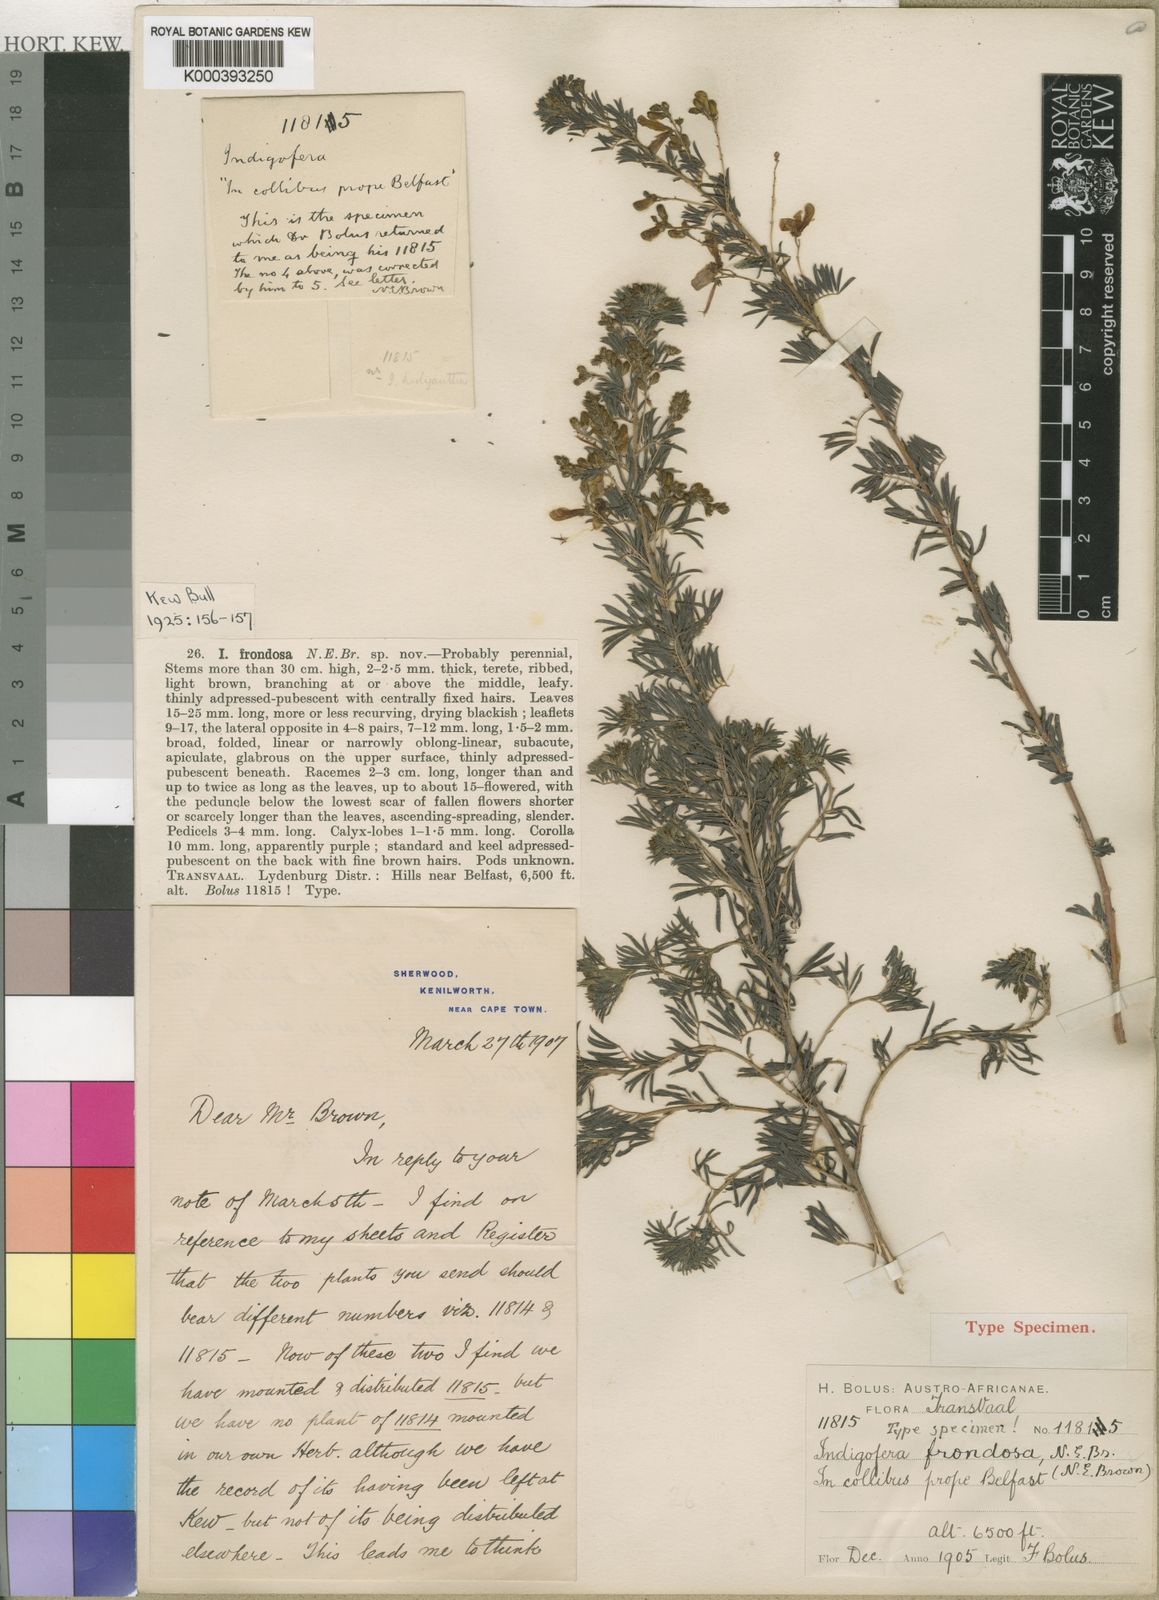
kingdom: Plantae
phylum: Tracheophyta
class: Magnoliopsida
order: Fabales
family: Fabaceae
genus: Indigofera
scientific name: Indigofera frondosa
